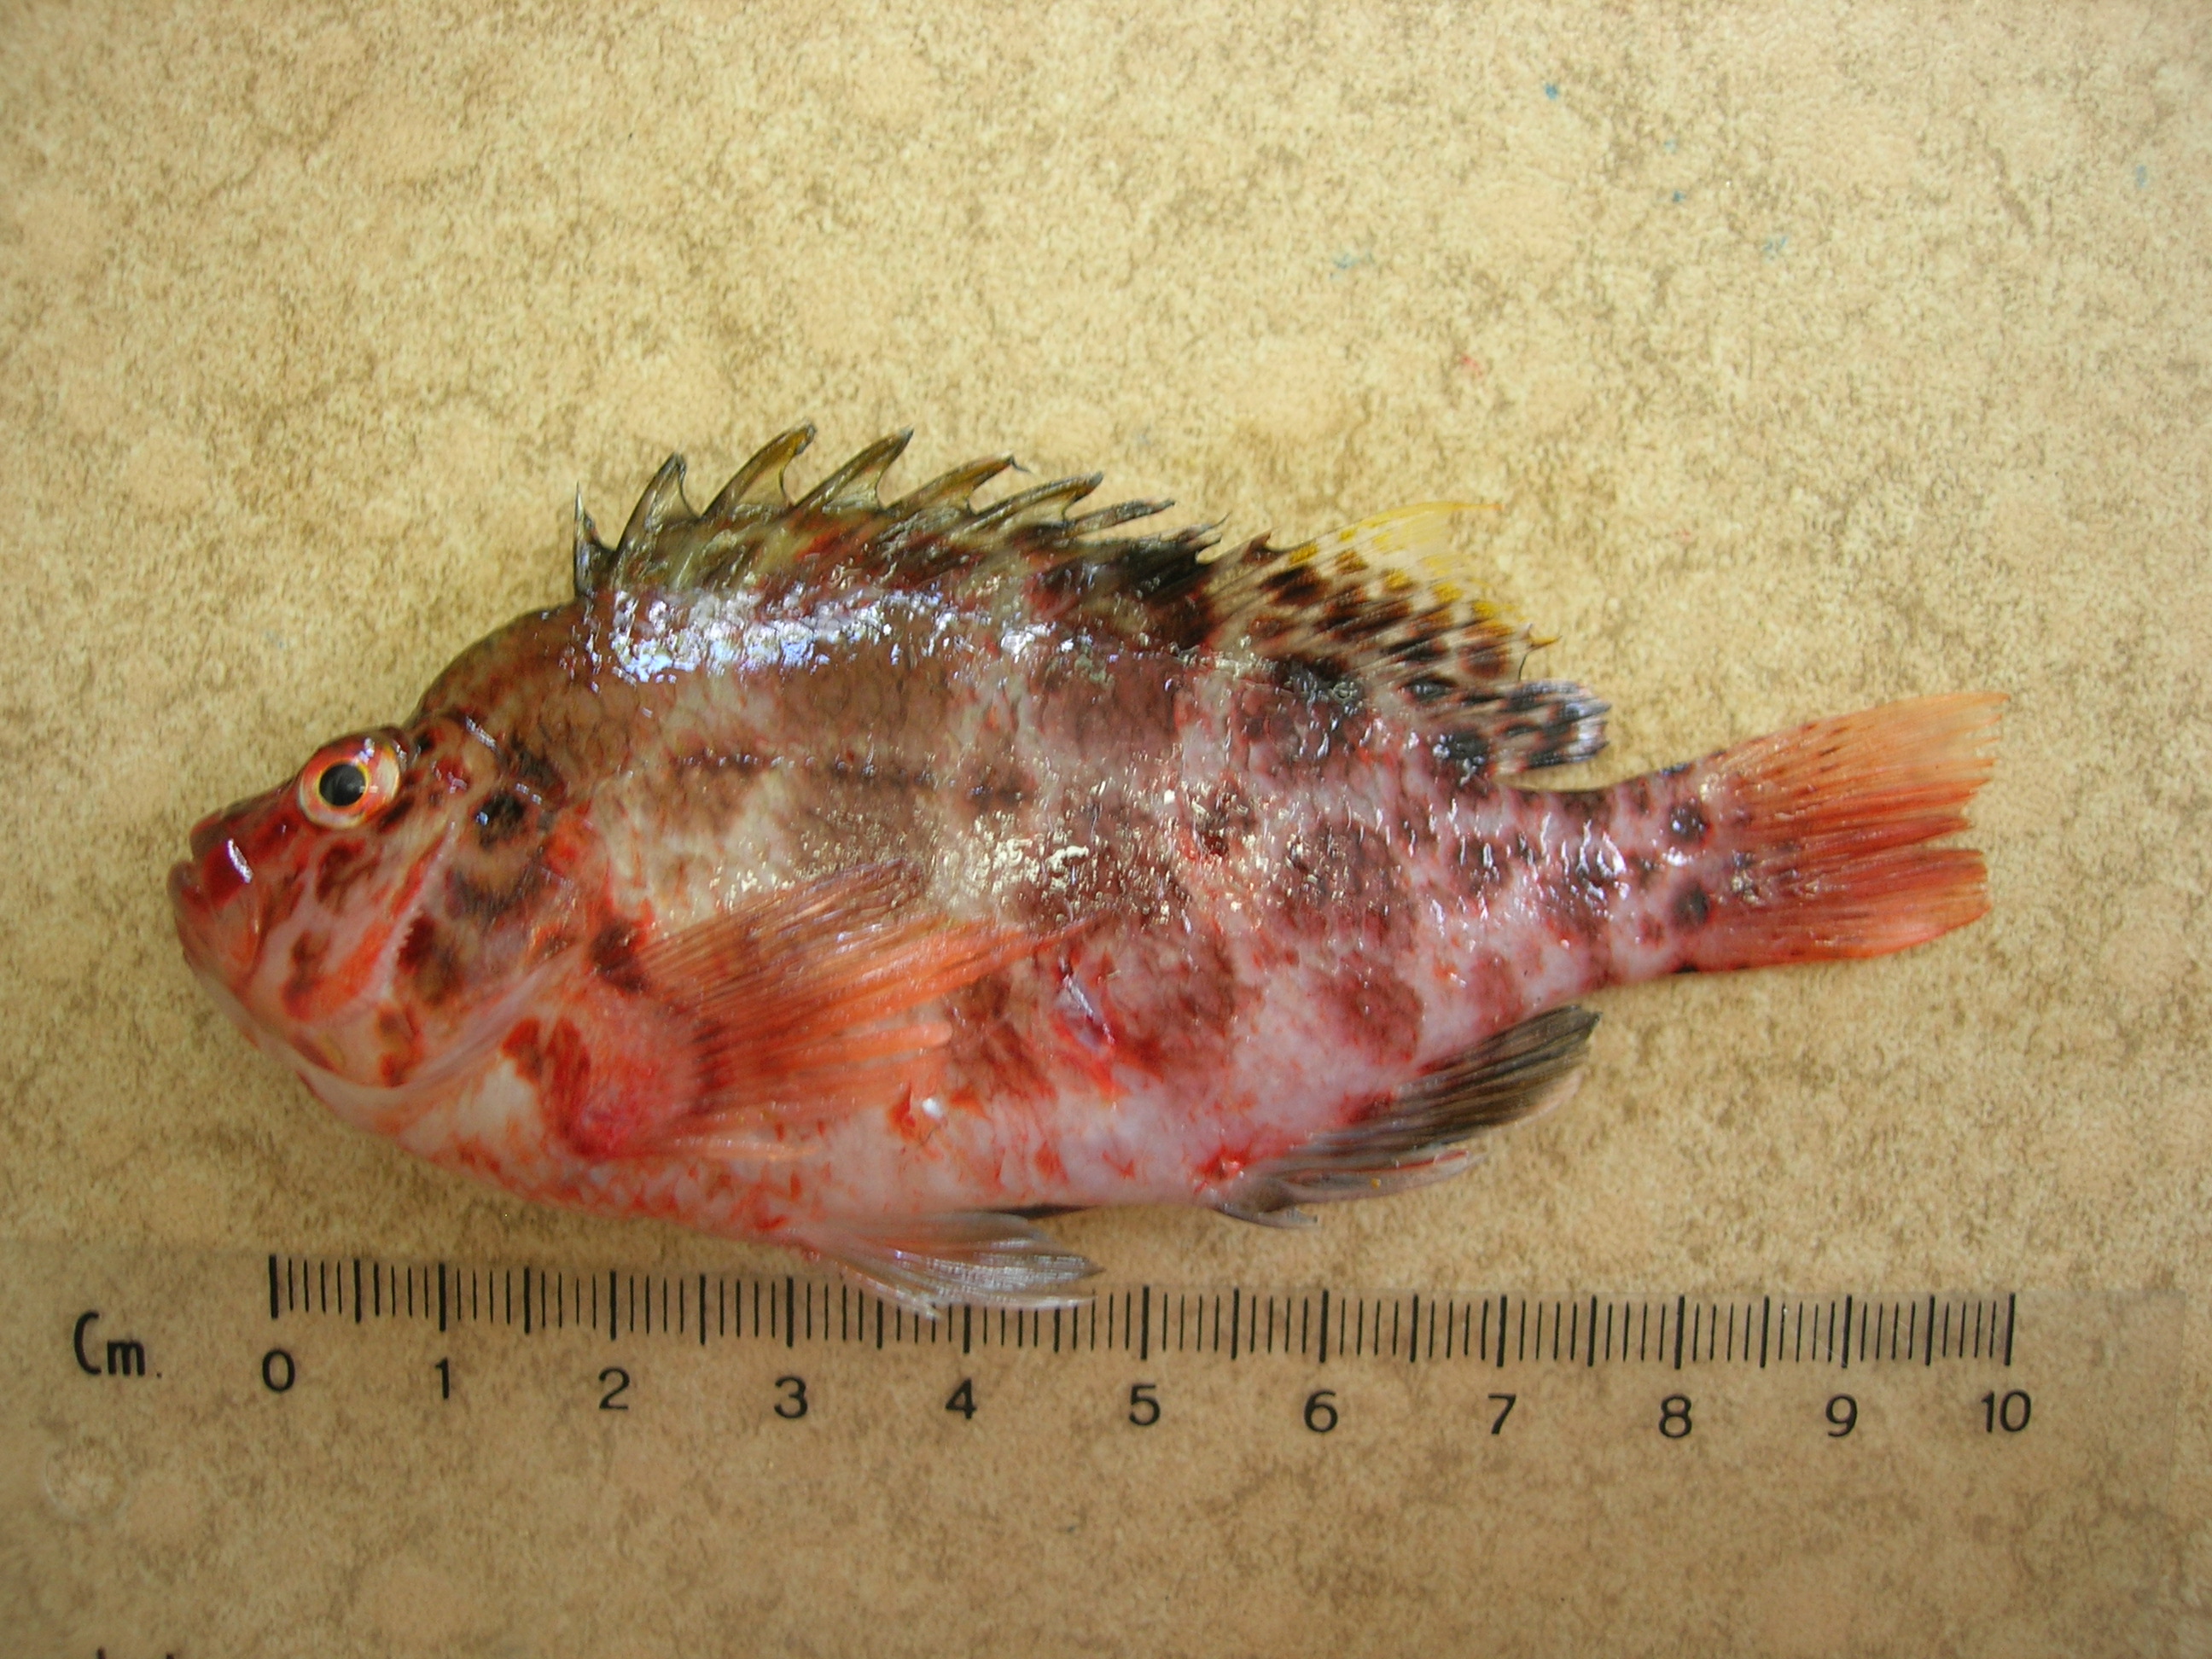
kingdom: Animalia
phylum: Chordata
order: Perciformes
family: Cirrhitidae
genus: Cirrhitichthys
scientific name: Cirrhitichthys aprinus
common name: Blotched hawkfish
